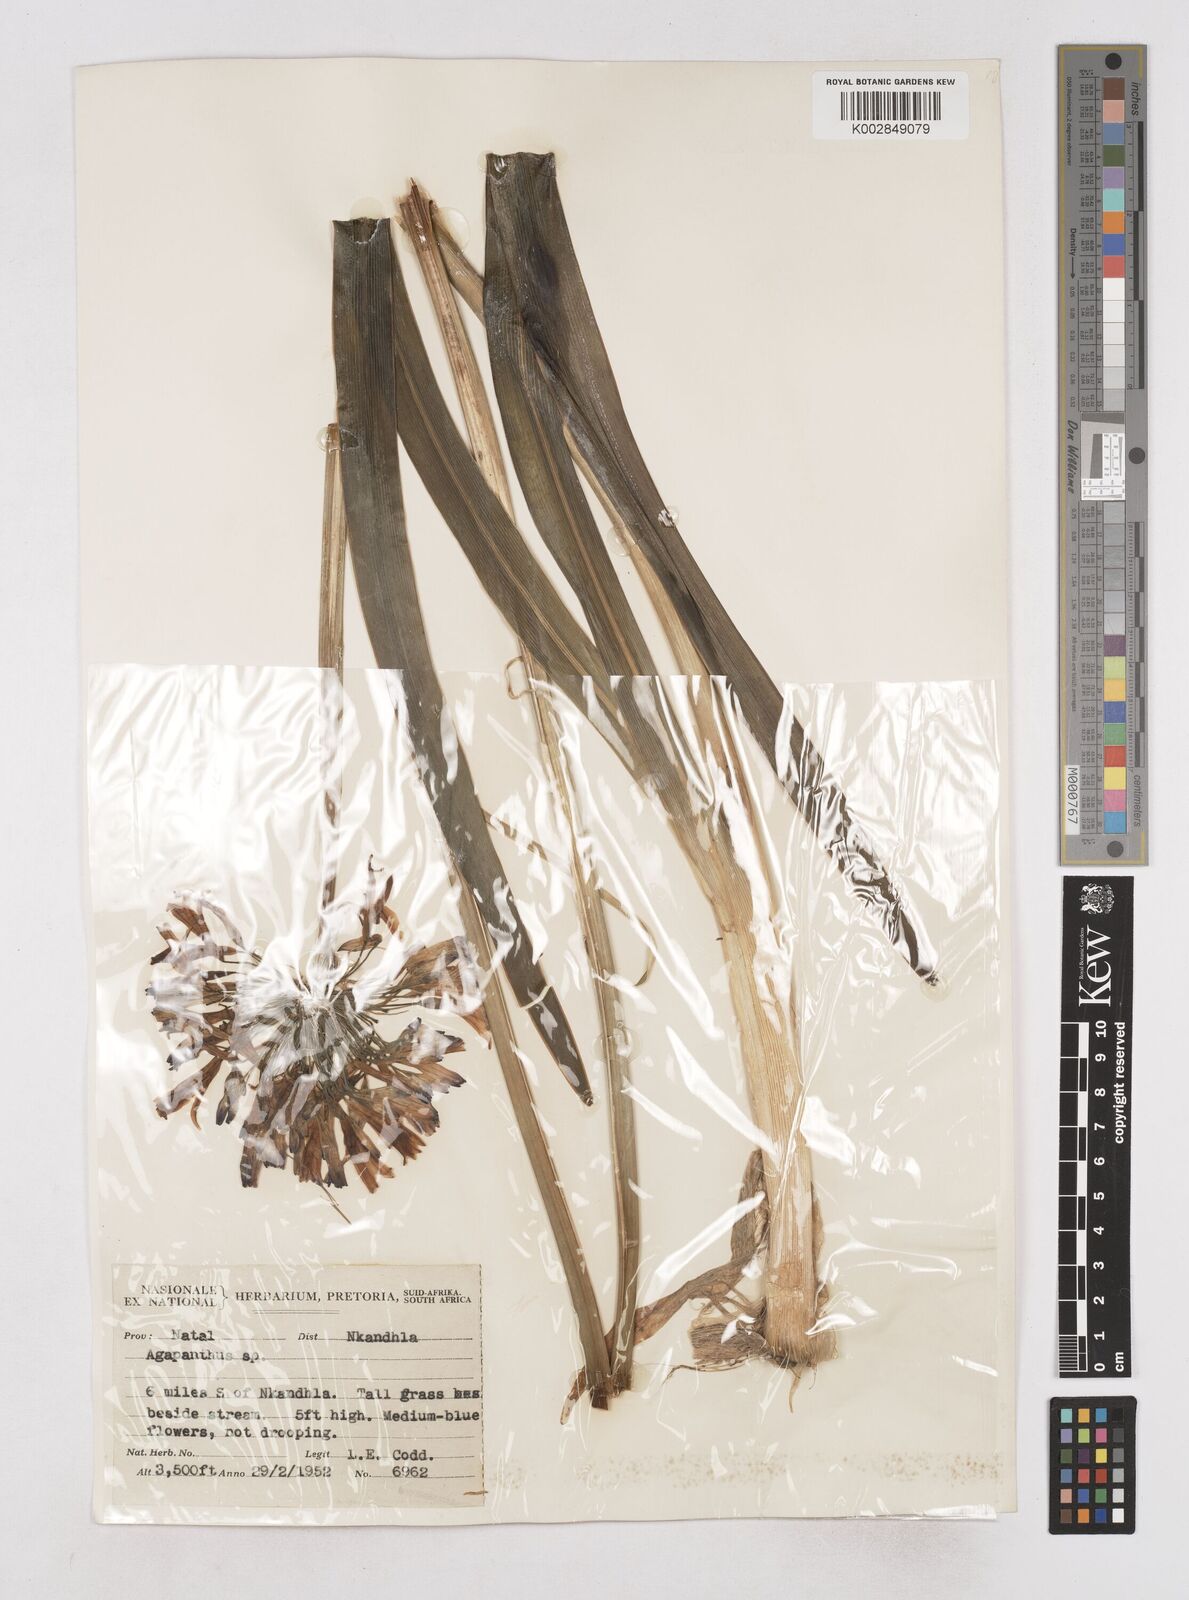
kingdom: Plantae
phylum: Tracheophyta
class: Liliopsida
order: Asparagales
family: Amaryllidaceae
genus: Agapanthus
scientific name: Agapanthus campanulatus
